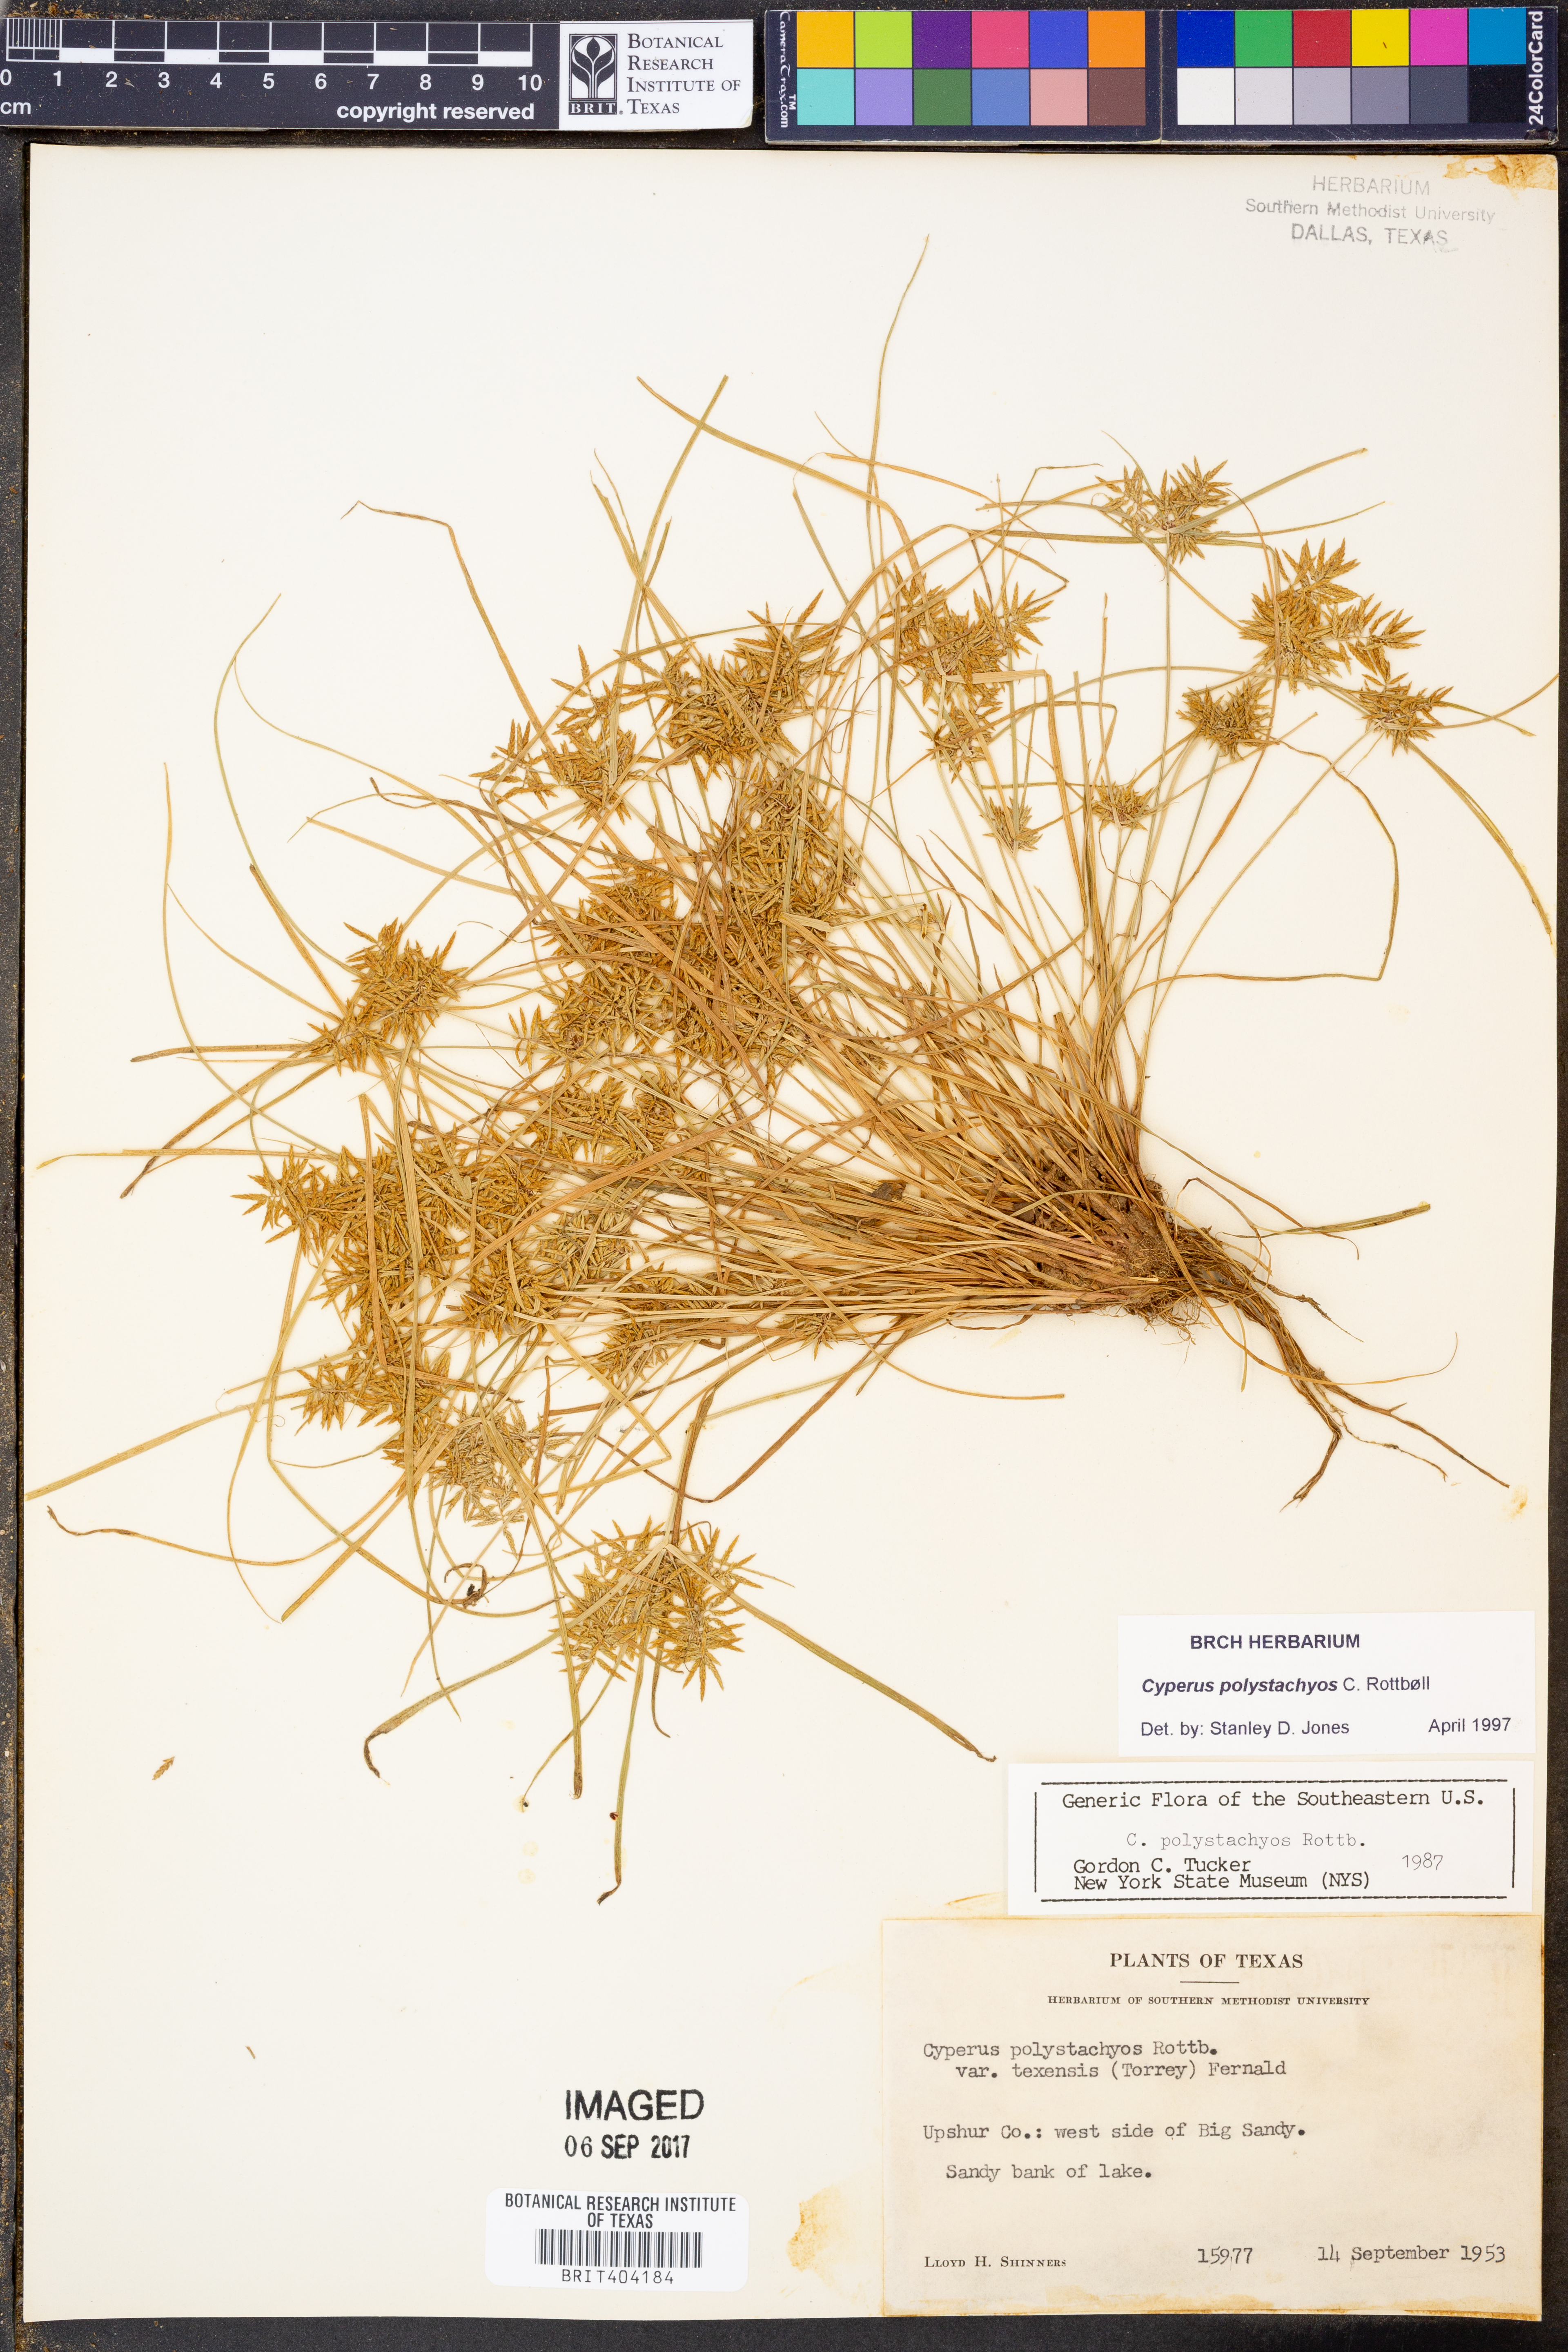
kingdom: Plantae
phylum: Tracheophyta
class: Liliopsida
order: Poales
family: Cyperaceae
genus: Cyperus
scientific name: Cyperus polystachyos
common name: Bunchy flat sedge
